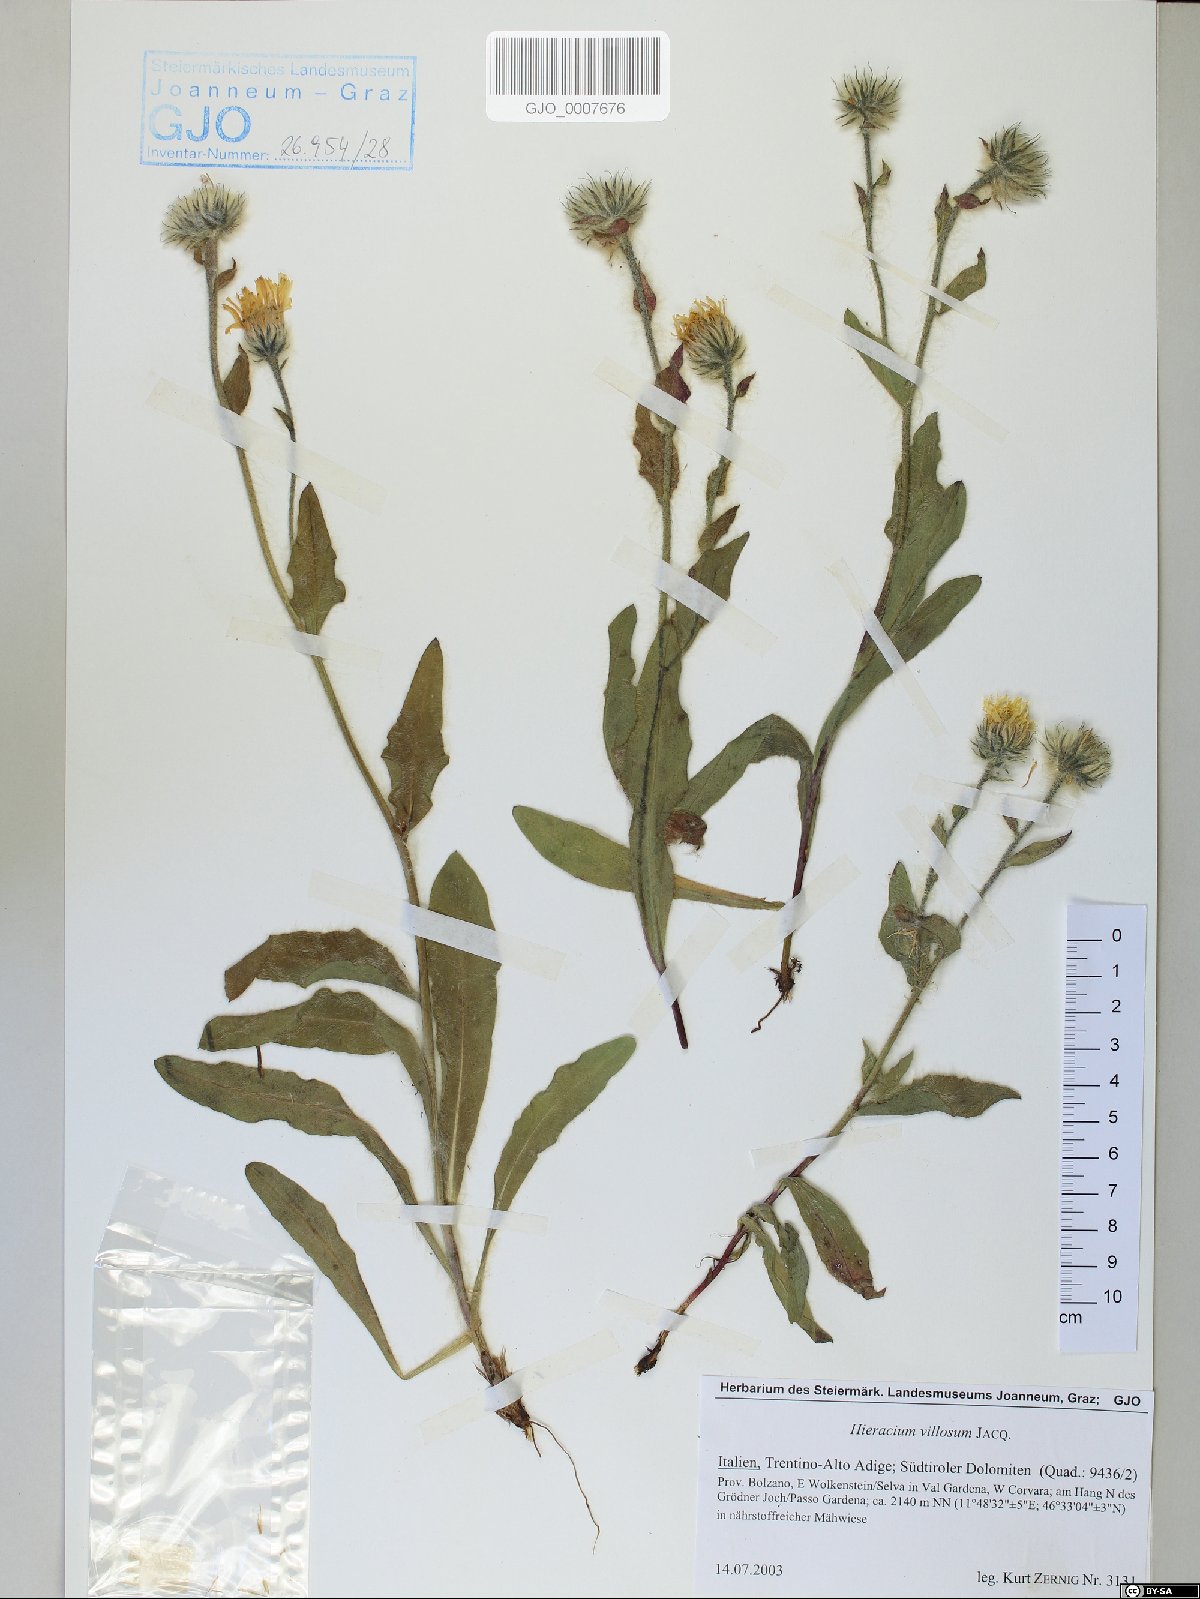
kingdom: Plantae
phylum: Tracheophyta
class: Magnoliopsida
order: Asterales
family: Asteraceae
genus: Hieracium
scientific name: Hieracium villosum
